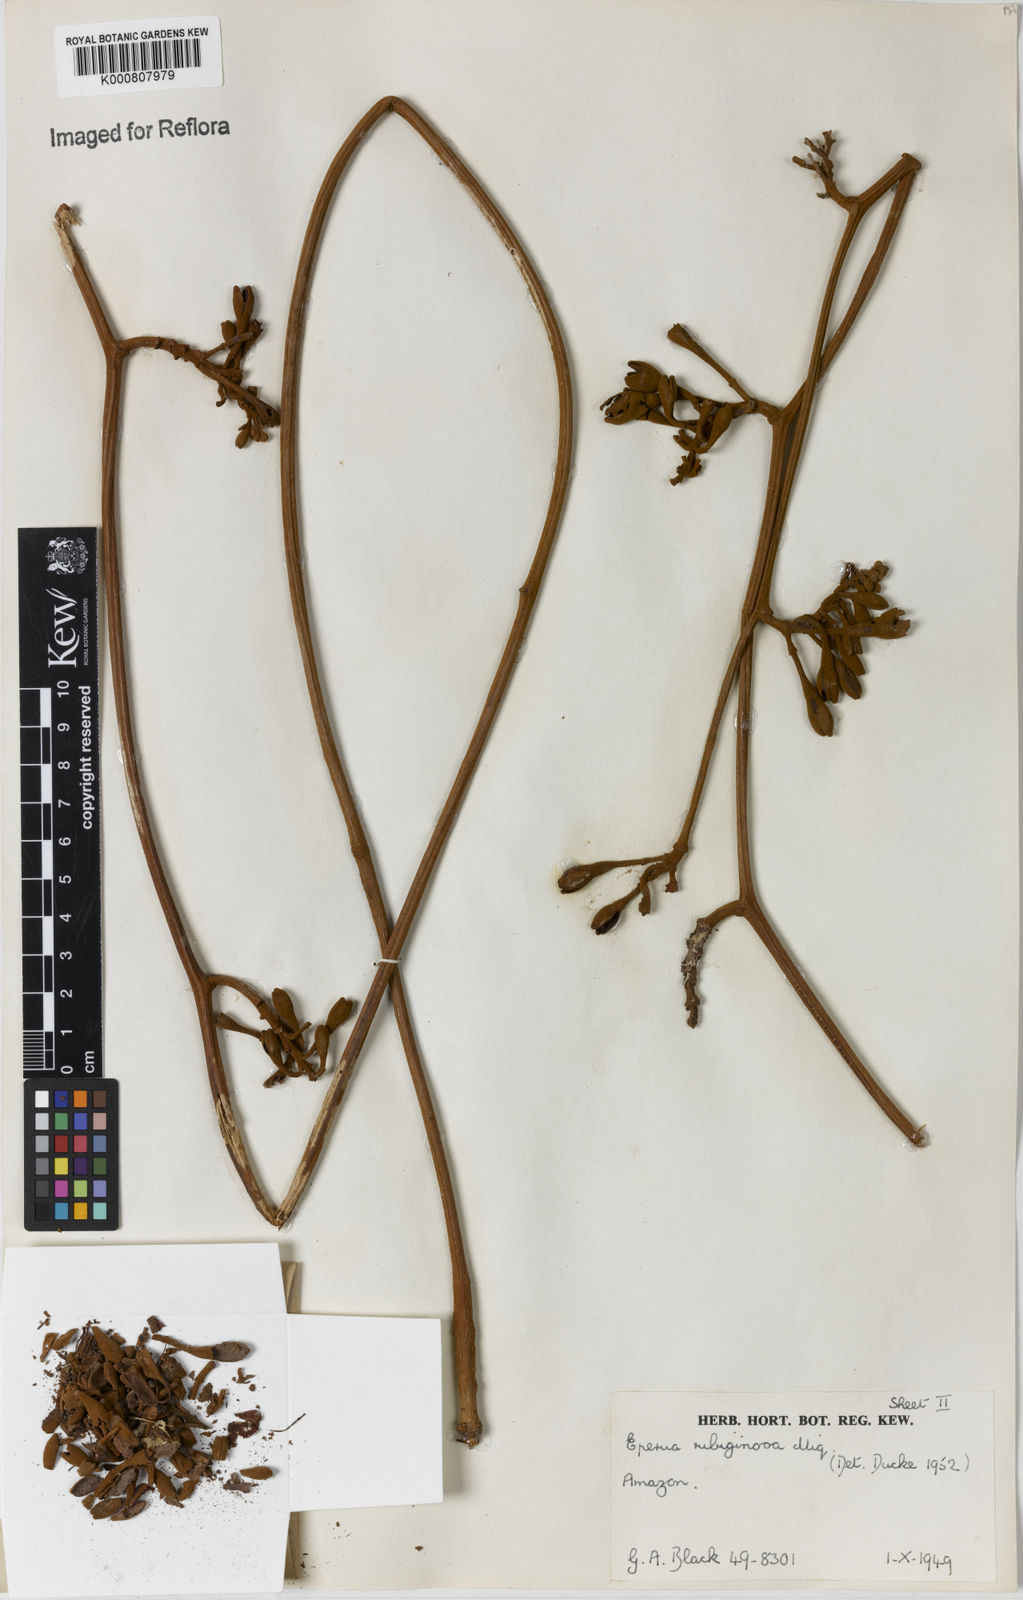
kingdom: Plantae
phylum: Tracheophyta
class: Magnoliopsida
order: Fabales
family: Fabaceae
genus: Eperua
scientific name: Eperua rubiginosa
